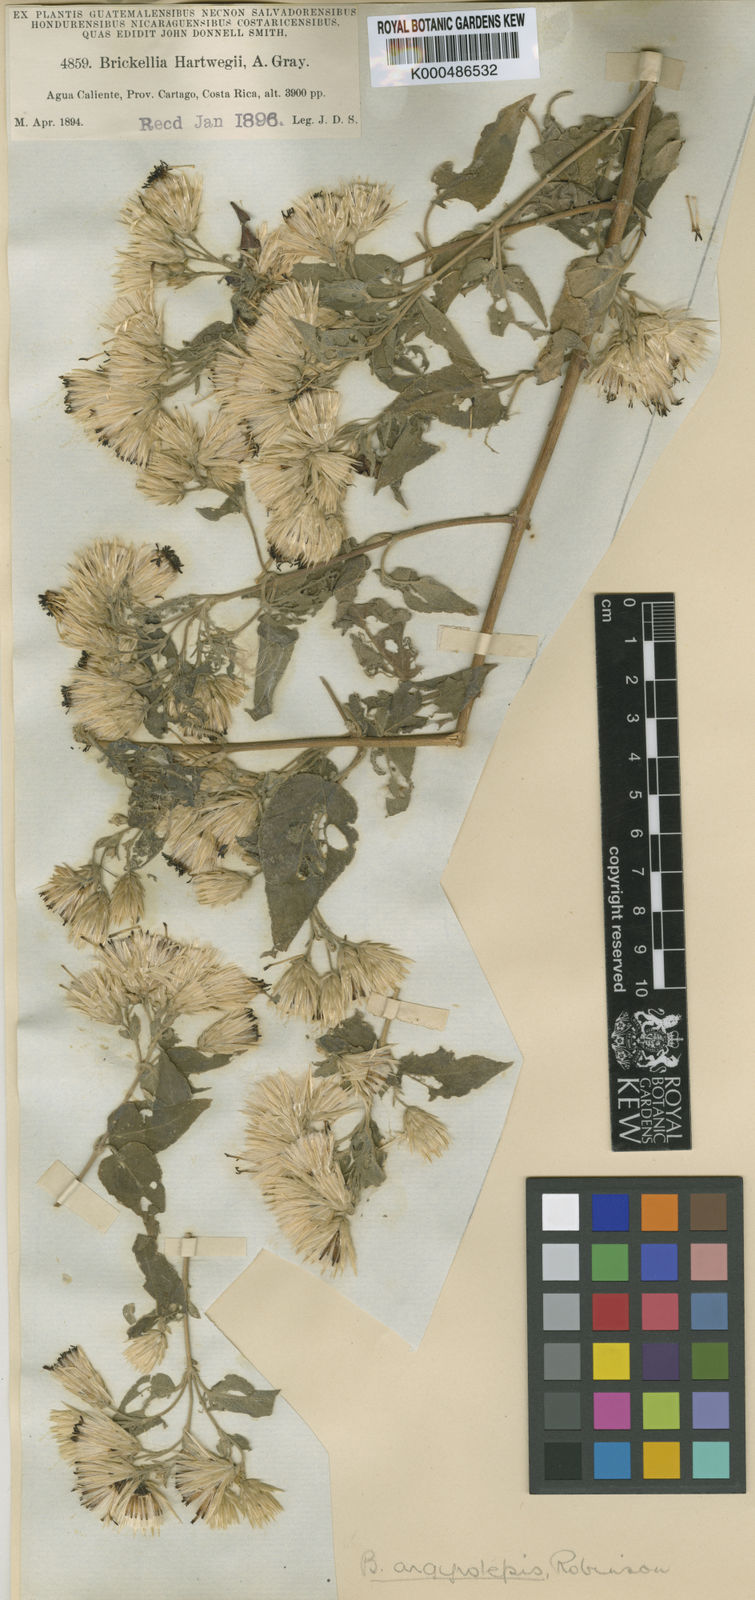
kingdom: Plantae
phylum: Tracheophyta
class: Magnoliopsida
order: Asterales
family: Asteraceae
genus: Brickellia
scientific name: Brickellia argyrolepis
